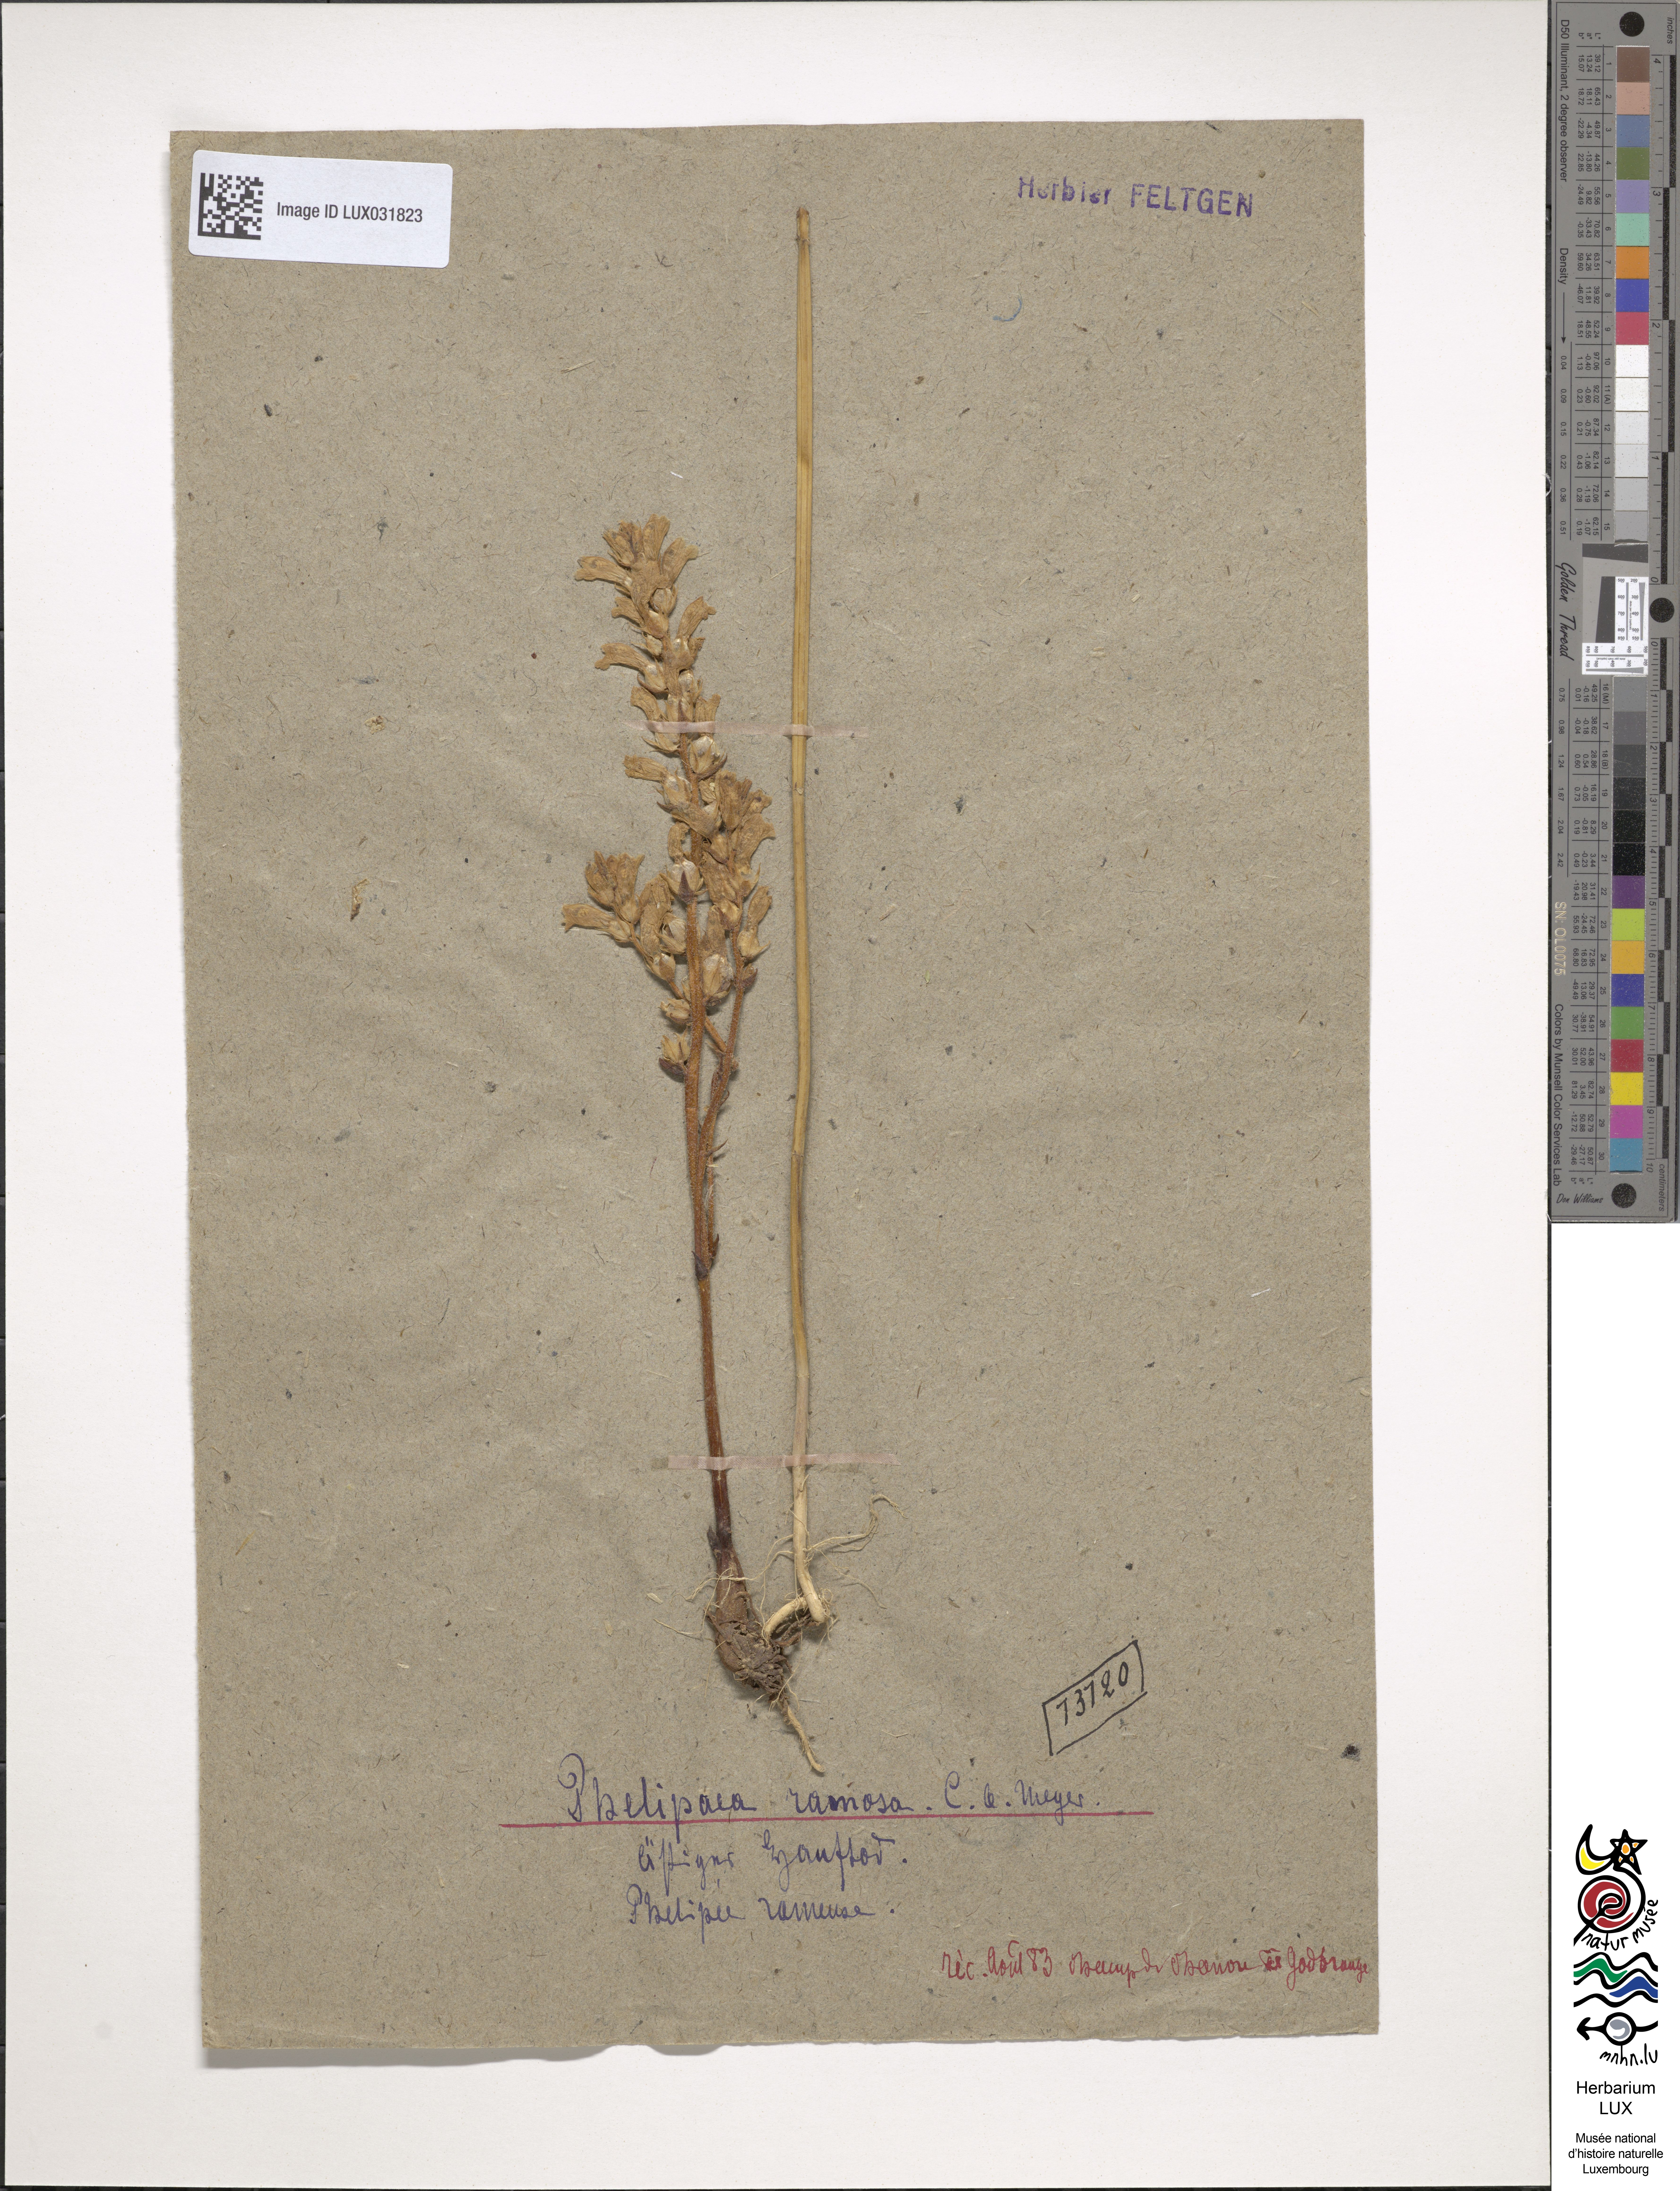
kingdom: Plantae
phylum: Tracheophyta
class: Magnoliopsida
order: Lamiales
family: Orobanchaceae
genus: Phelipanche
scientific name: Phelipanche ramosa
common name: Branched broomrape
